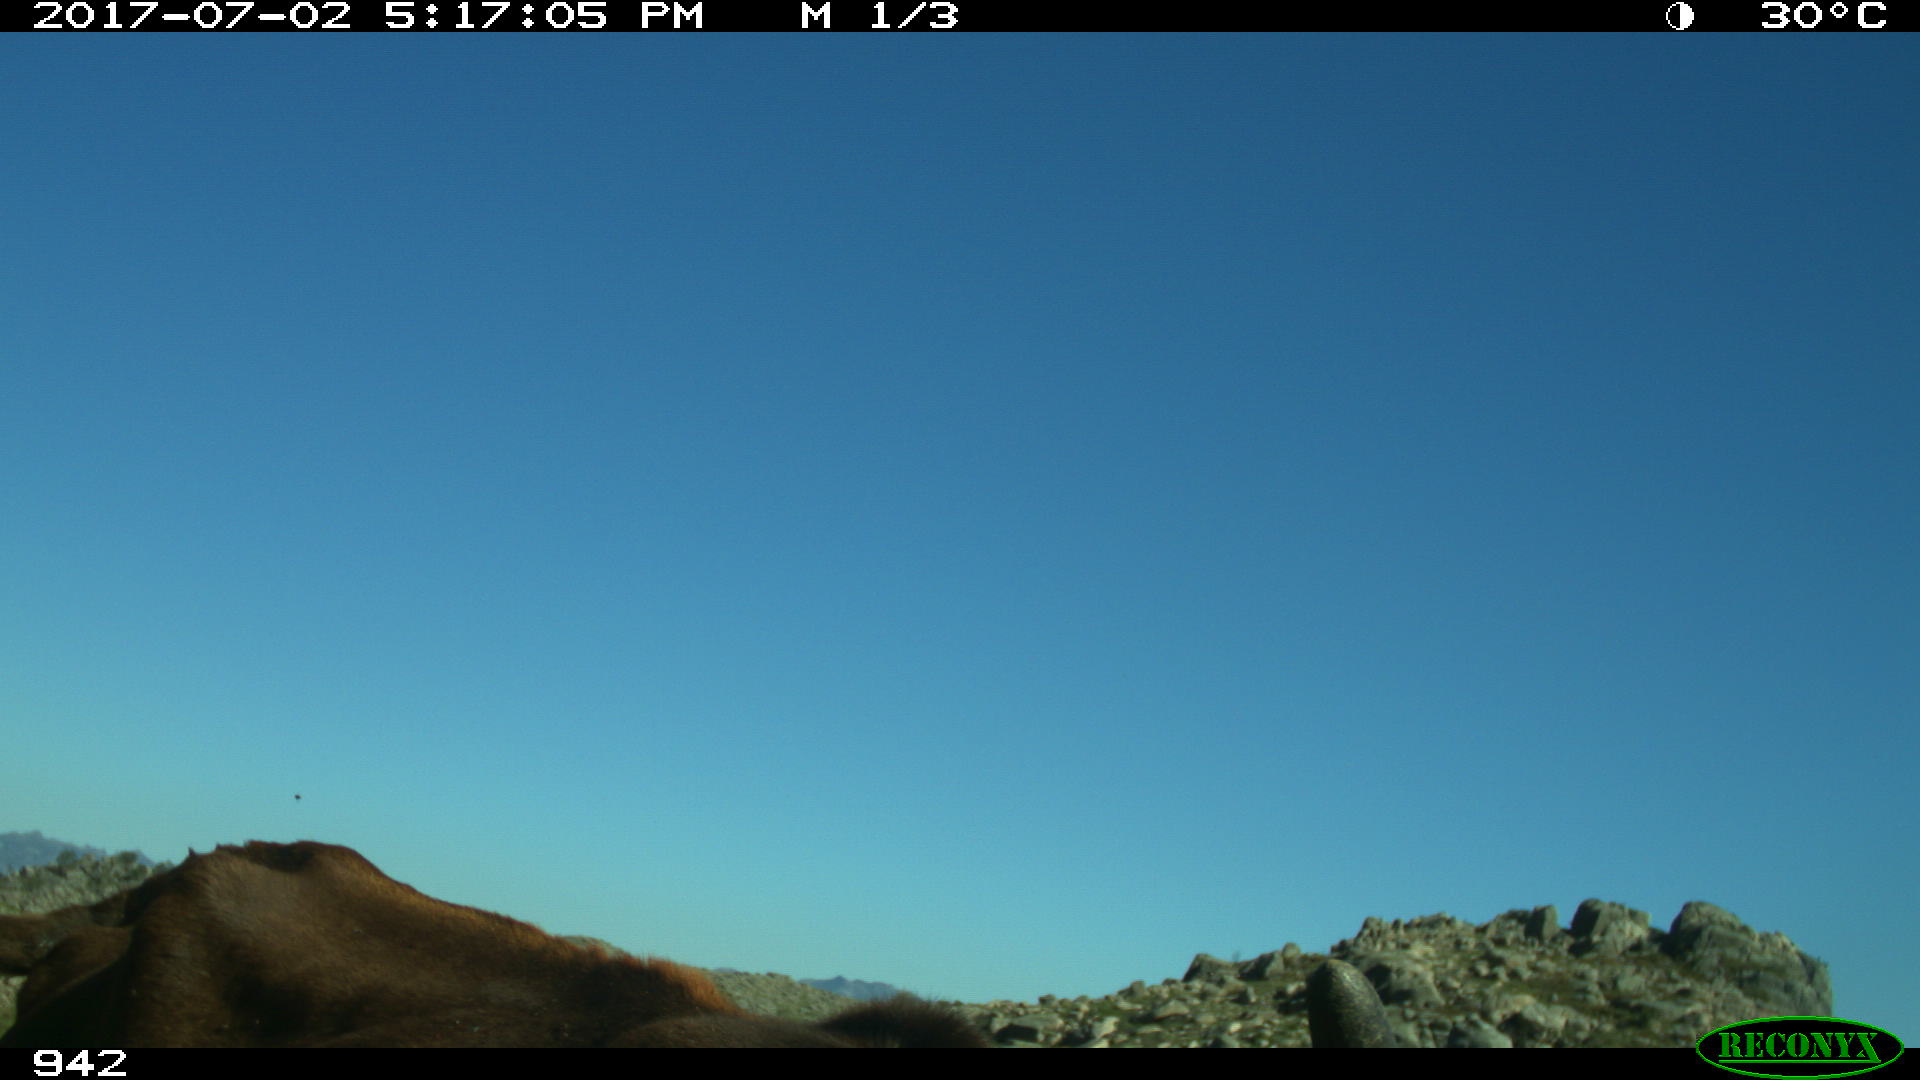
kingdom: Animalia
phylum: Chordata
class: Mammalia
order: Artiodactyla
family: Bovidae
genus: Bos
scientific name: Bos taurus
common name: Domesticated cattle
